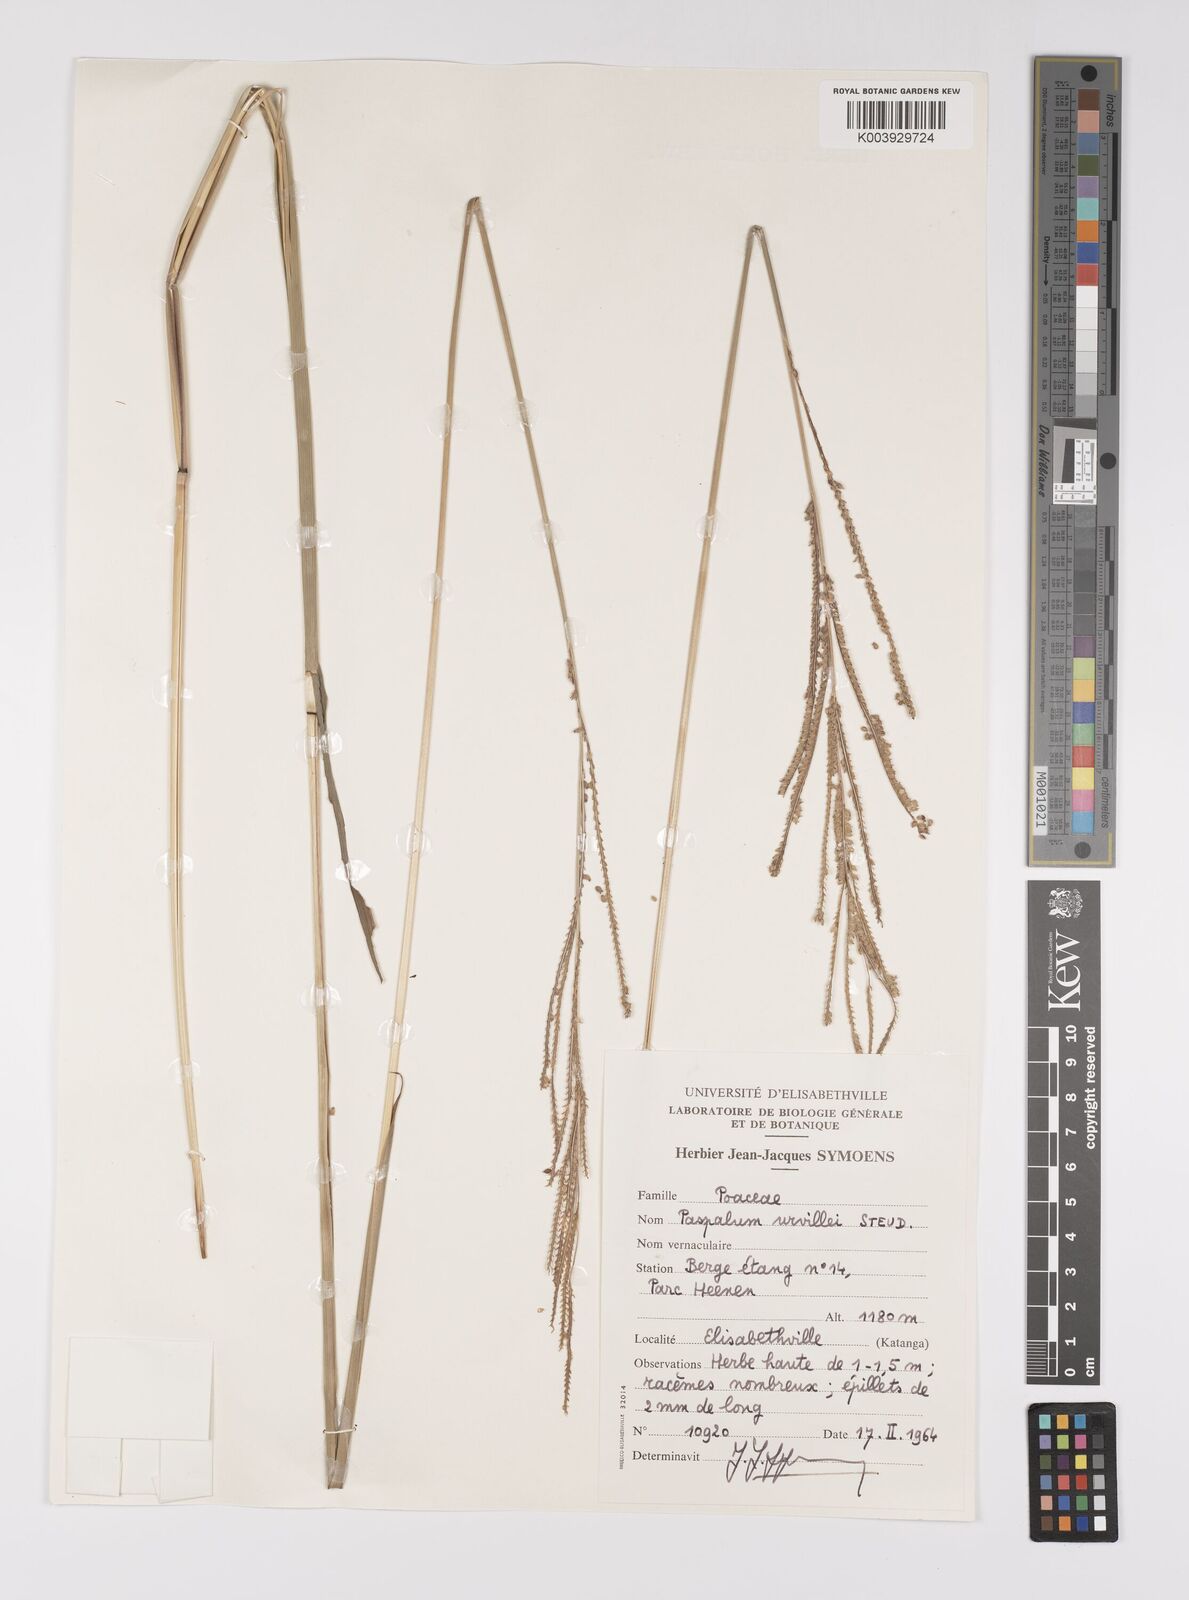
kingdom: Plantae
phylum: Tracheophyta
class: Liliopsida
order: Poales
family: Poaceae
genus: Paspalum
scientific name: Paspalum urvillei
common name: Vasey's grass
